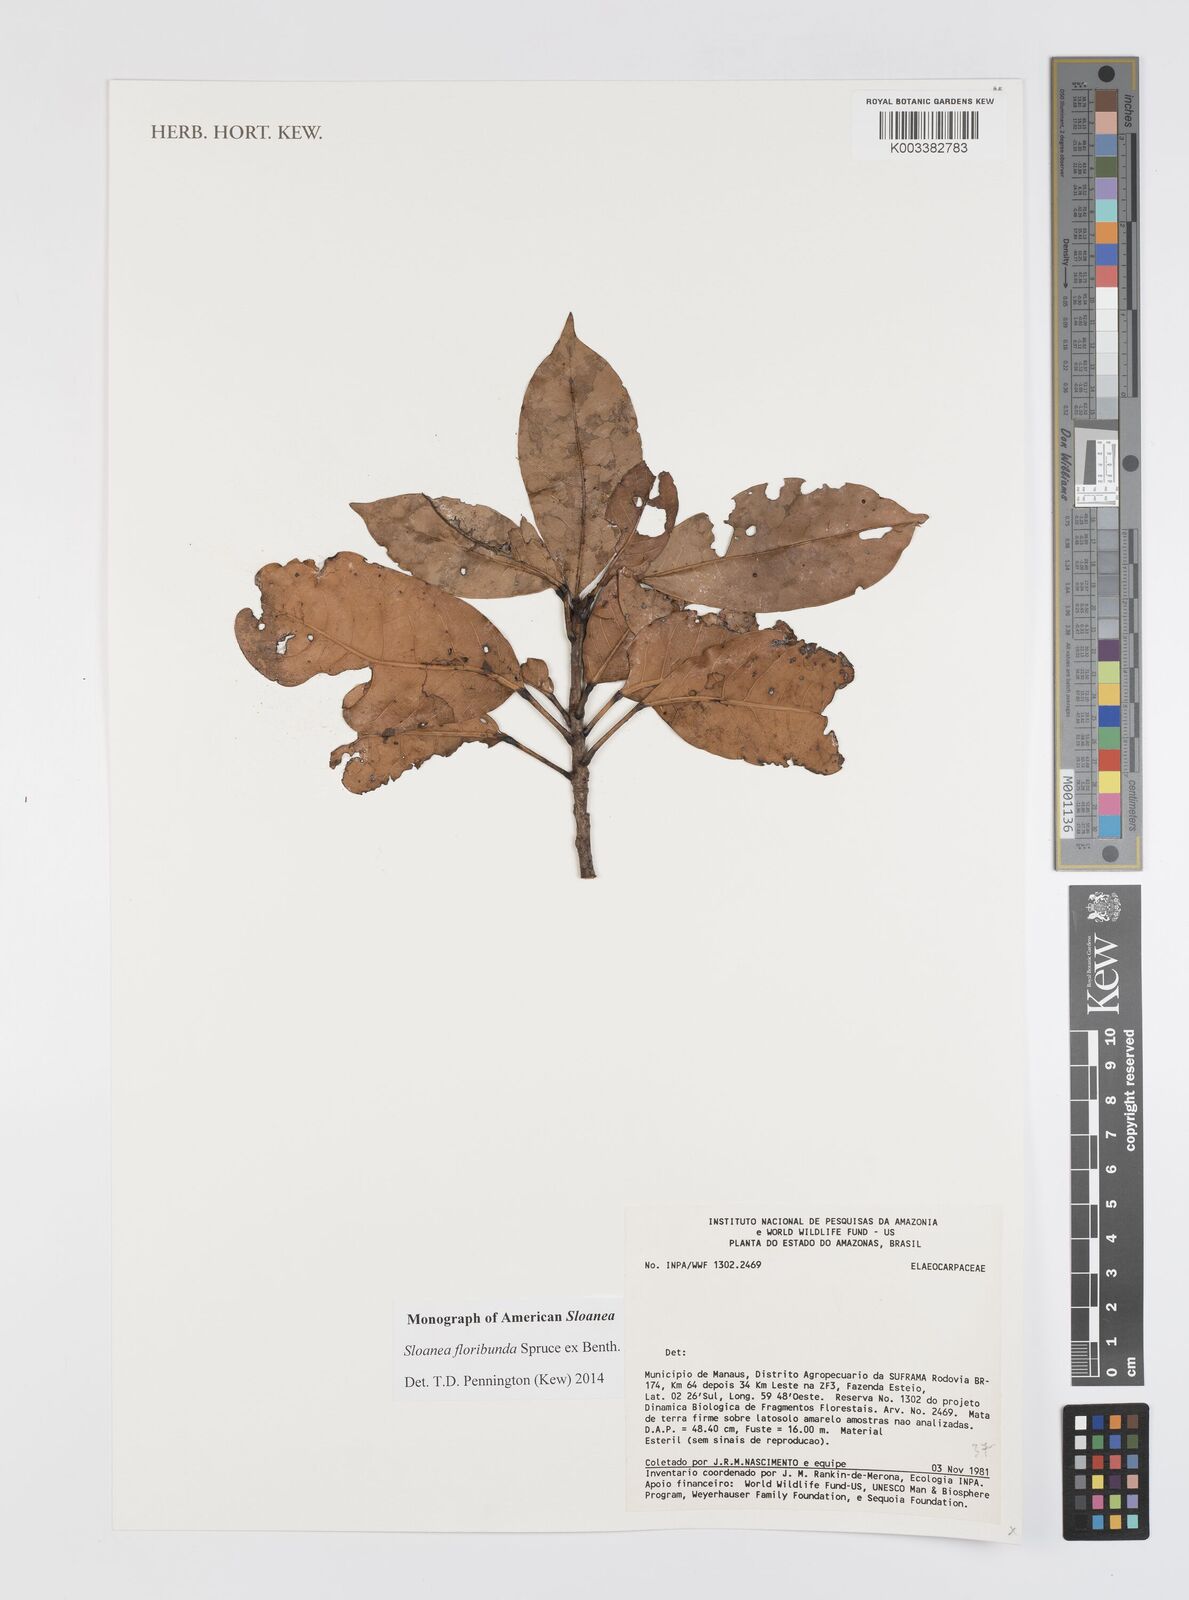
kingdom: Plantae
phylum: Tracheophyta
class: Magnoliopsida
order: Oxalidales
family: Elaeocarpaceae
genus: Sloanea
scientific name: Sloanea floribunda
